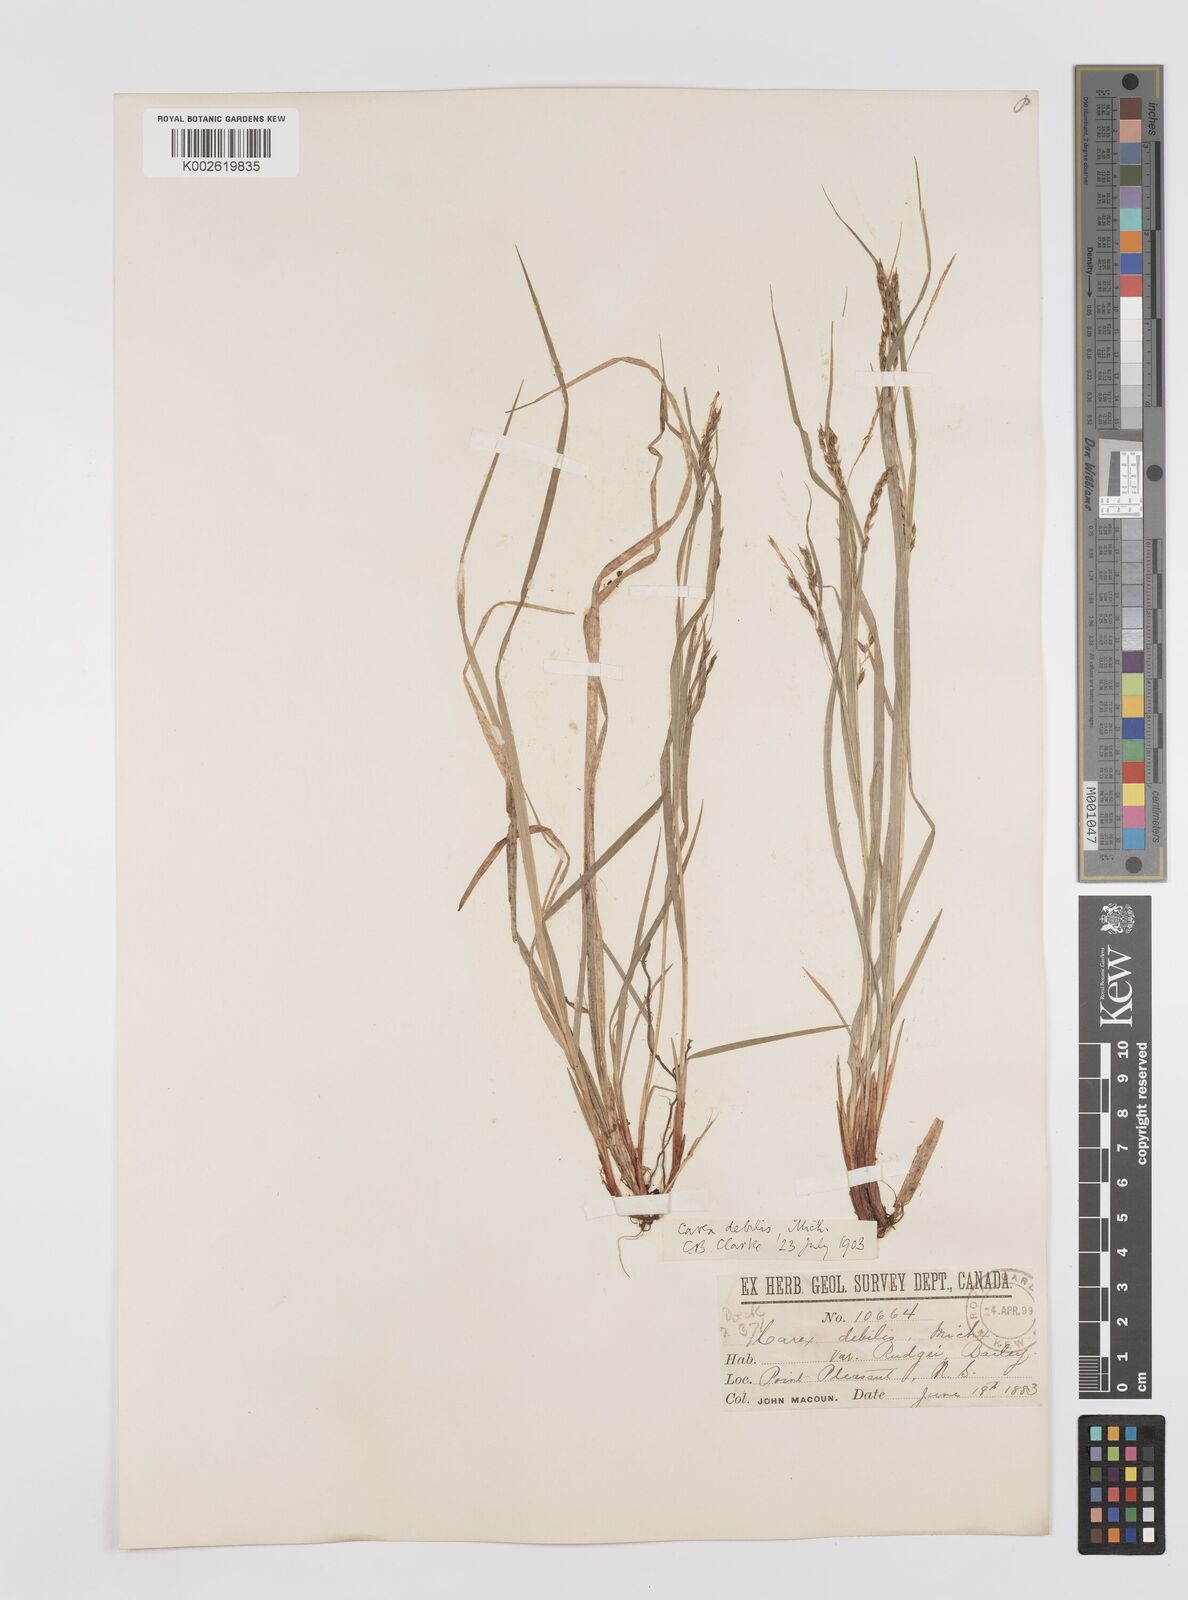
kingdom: Plantae
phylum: Tracheophyta
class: Liliopsida
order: Poales
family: Cyperaceae
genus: Carex
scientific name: Carex debilis
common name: White-edge sedge
